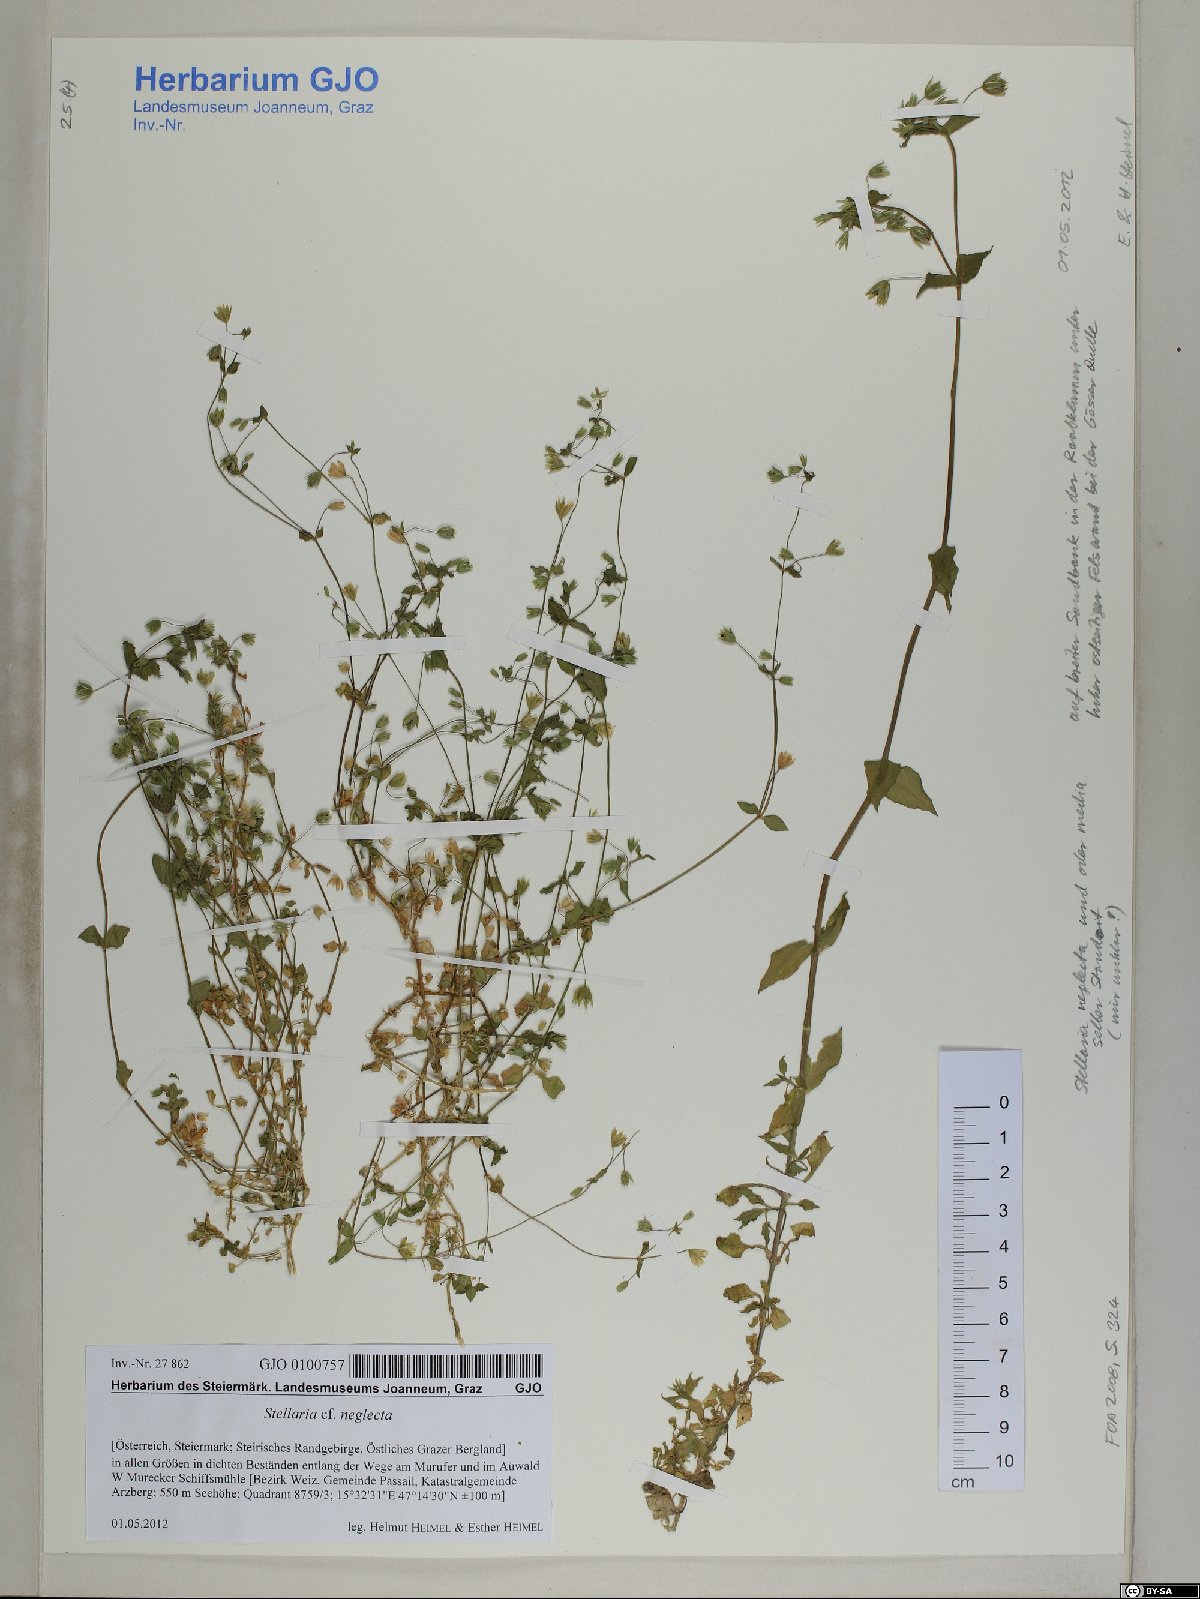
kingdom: Plantae
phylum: Tracheophyta
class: Magnoliopsida
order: Caryophyllales
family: Caryophyllaceae
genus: Stellaria
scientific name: Stellaria neglecta
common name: Greater chickweed
